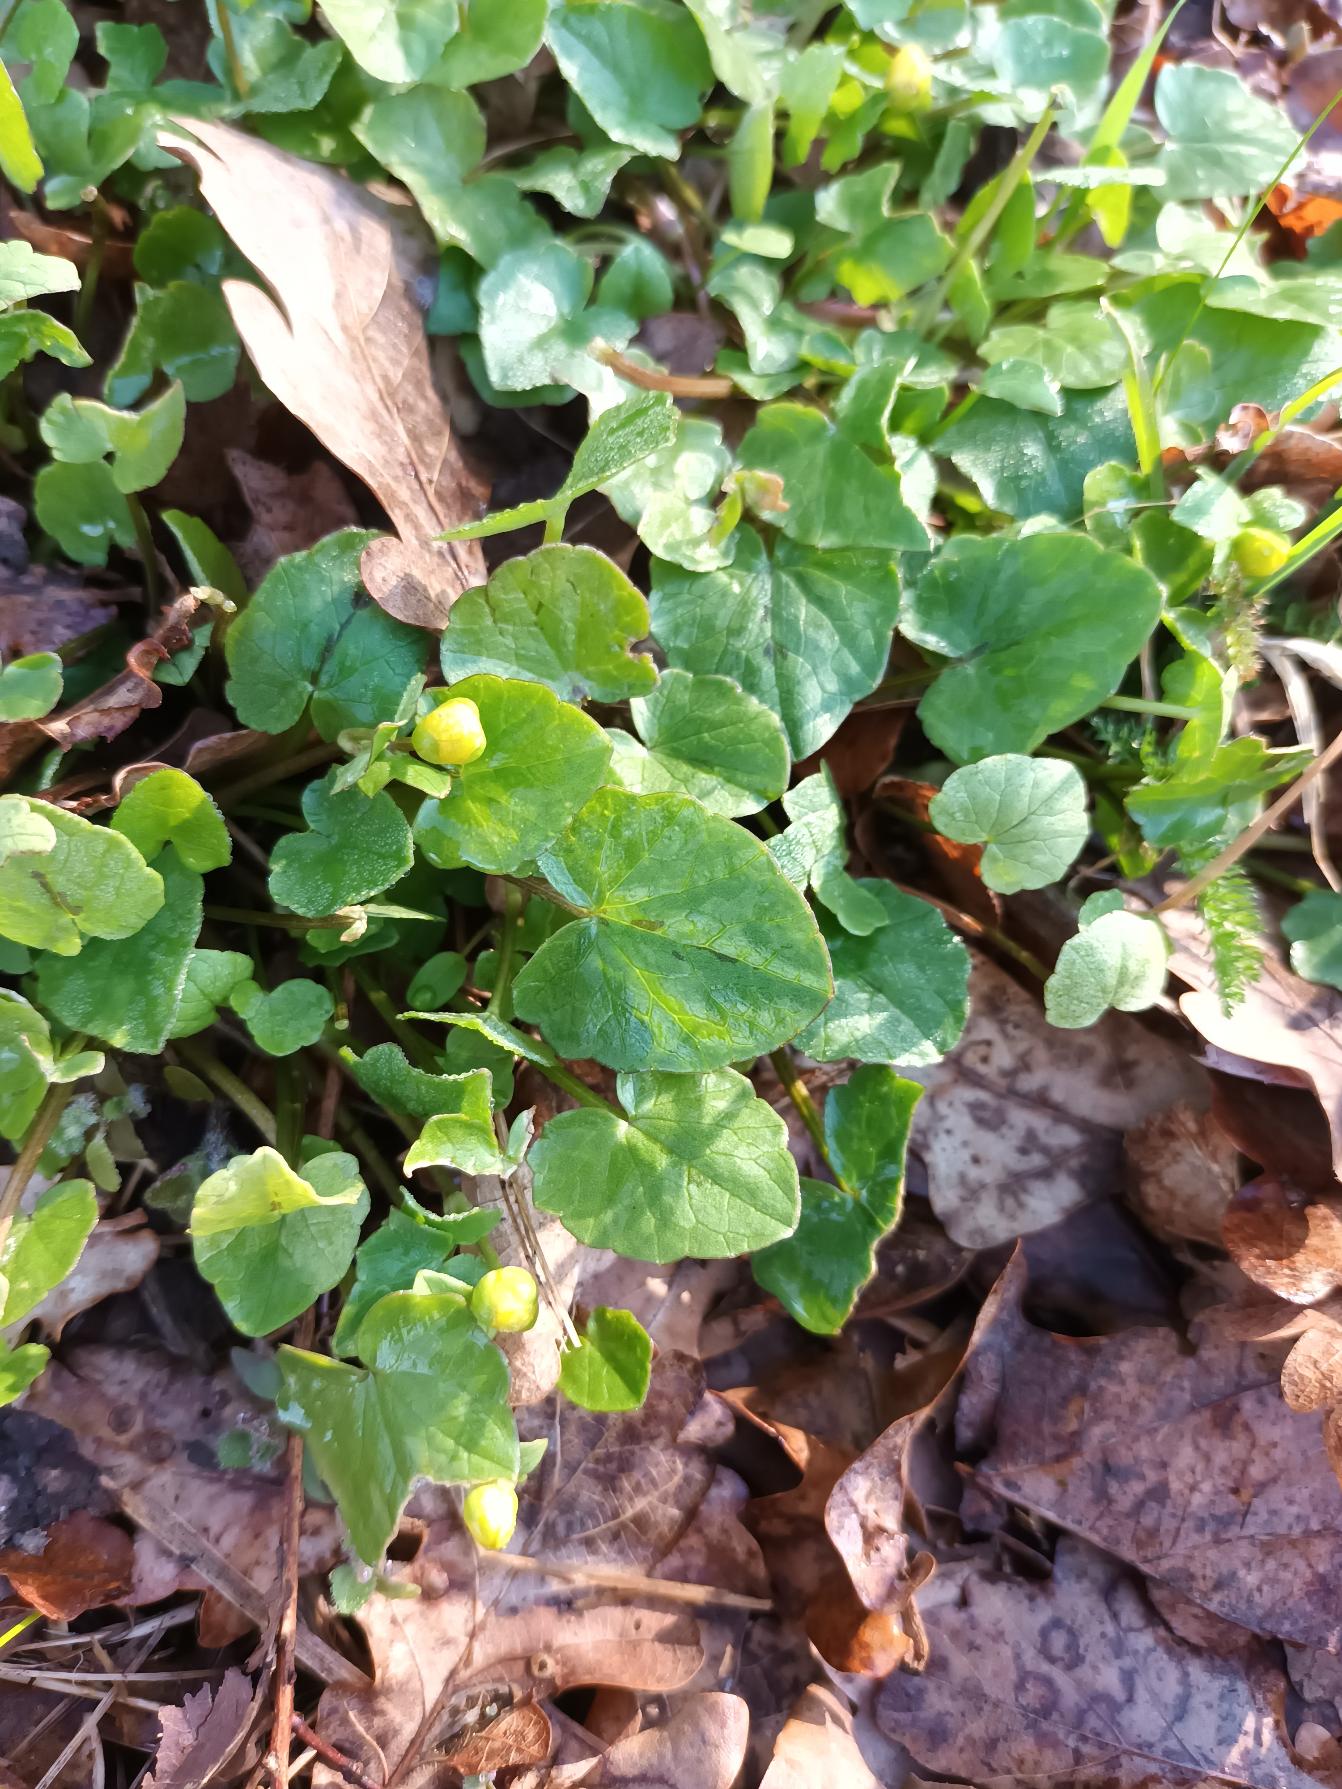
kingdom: Plantae
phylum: Tracheophyta
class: Magnoliopsida
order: Ranunculales
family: Ranunculaceae
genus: Ficaria
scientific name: Ficaria verna
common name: Vorterod
